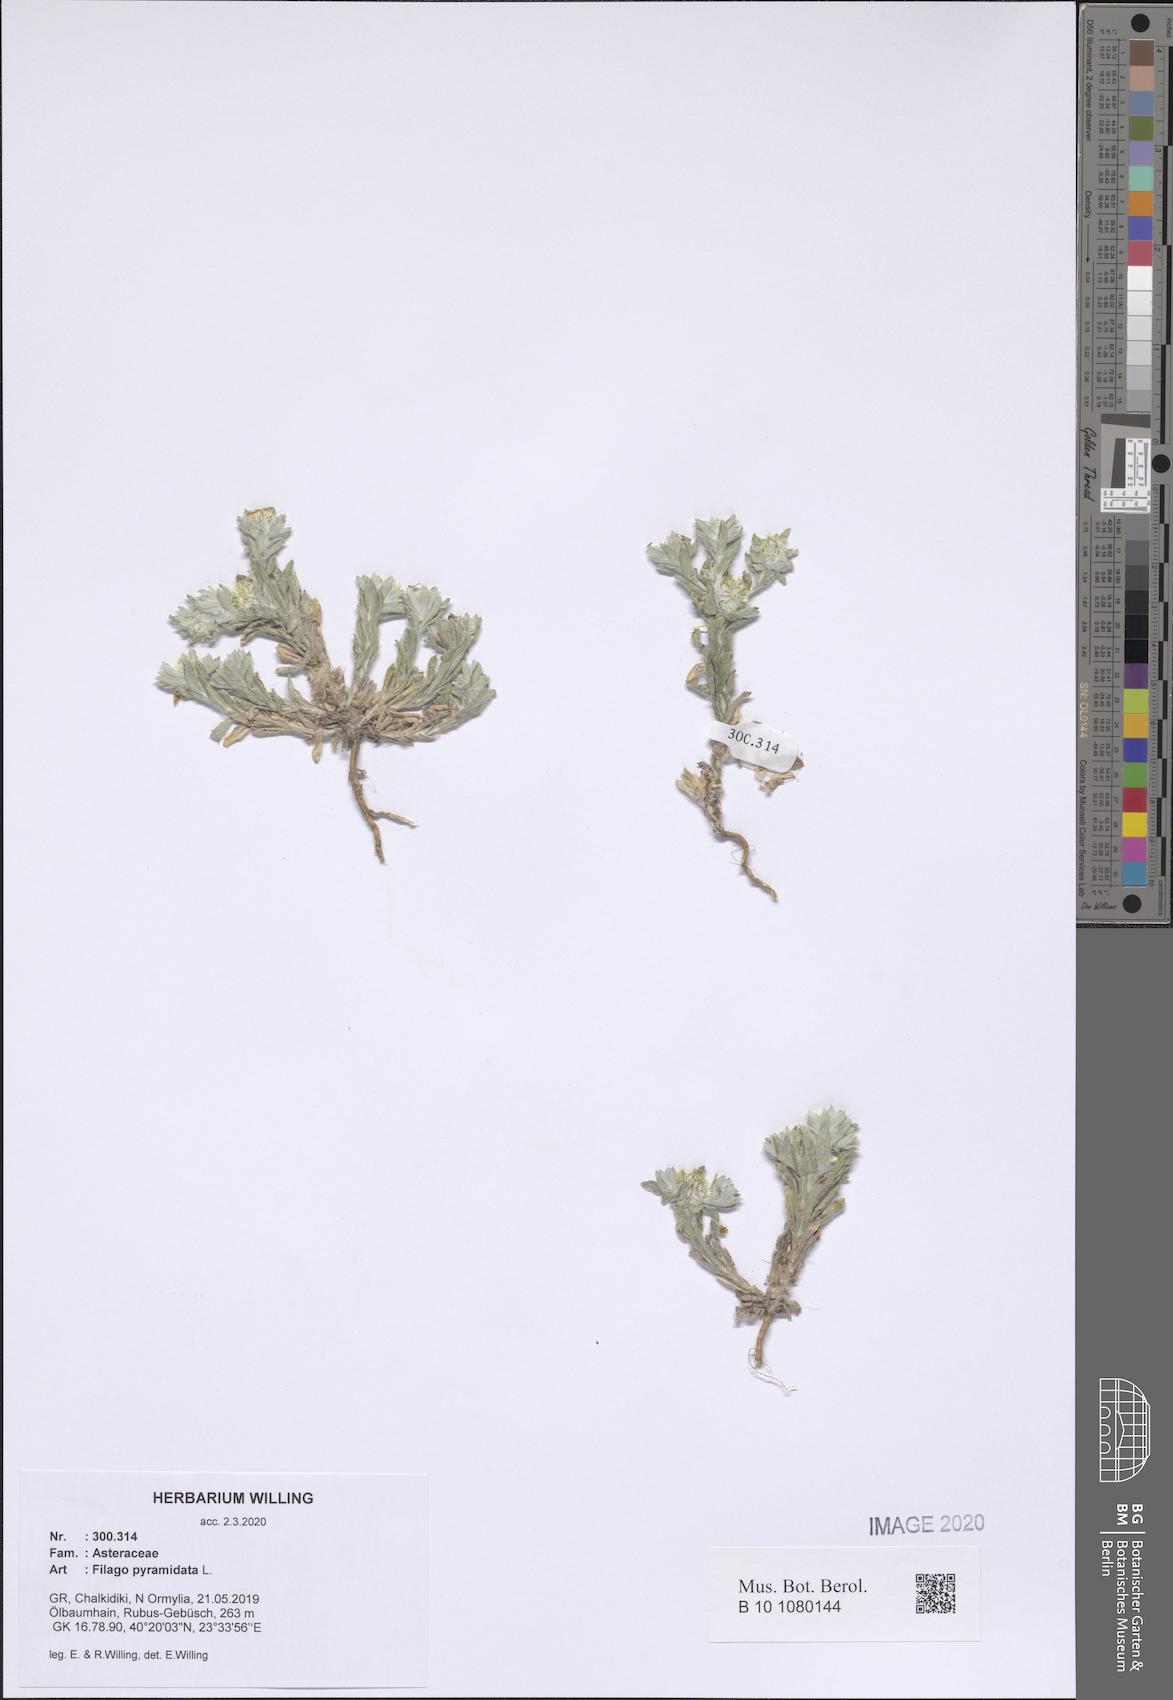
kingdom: Plantae
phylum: Tracheophyta
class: Magnoliopsida
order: Asterales
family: Asteraceae
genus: Filago
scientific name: Filago pyramidata
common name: Broad-leaved cudweed
